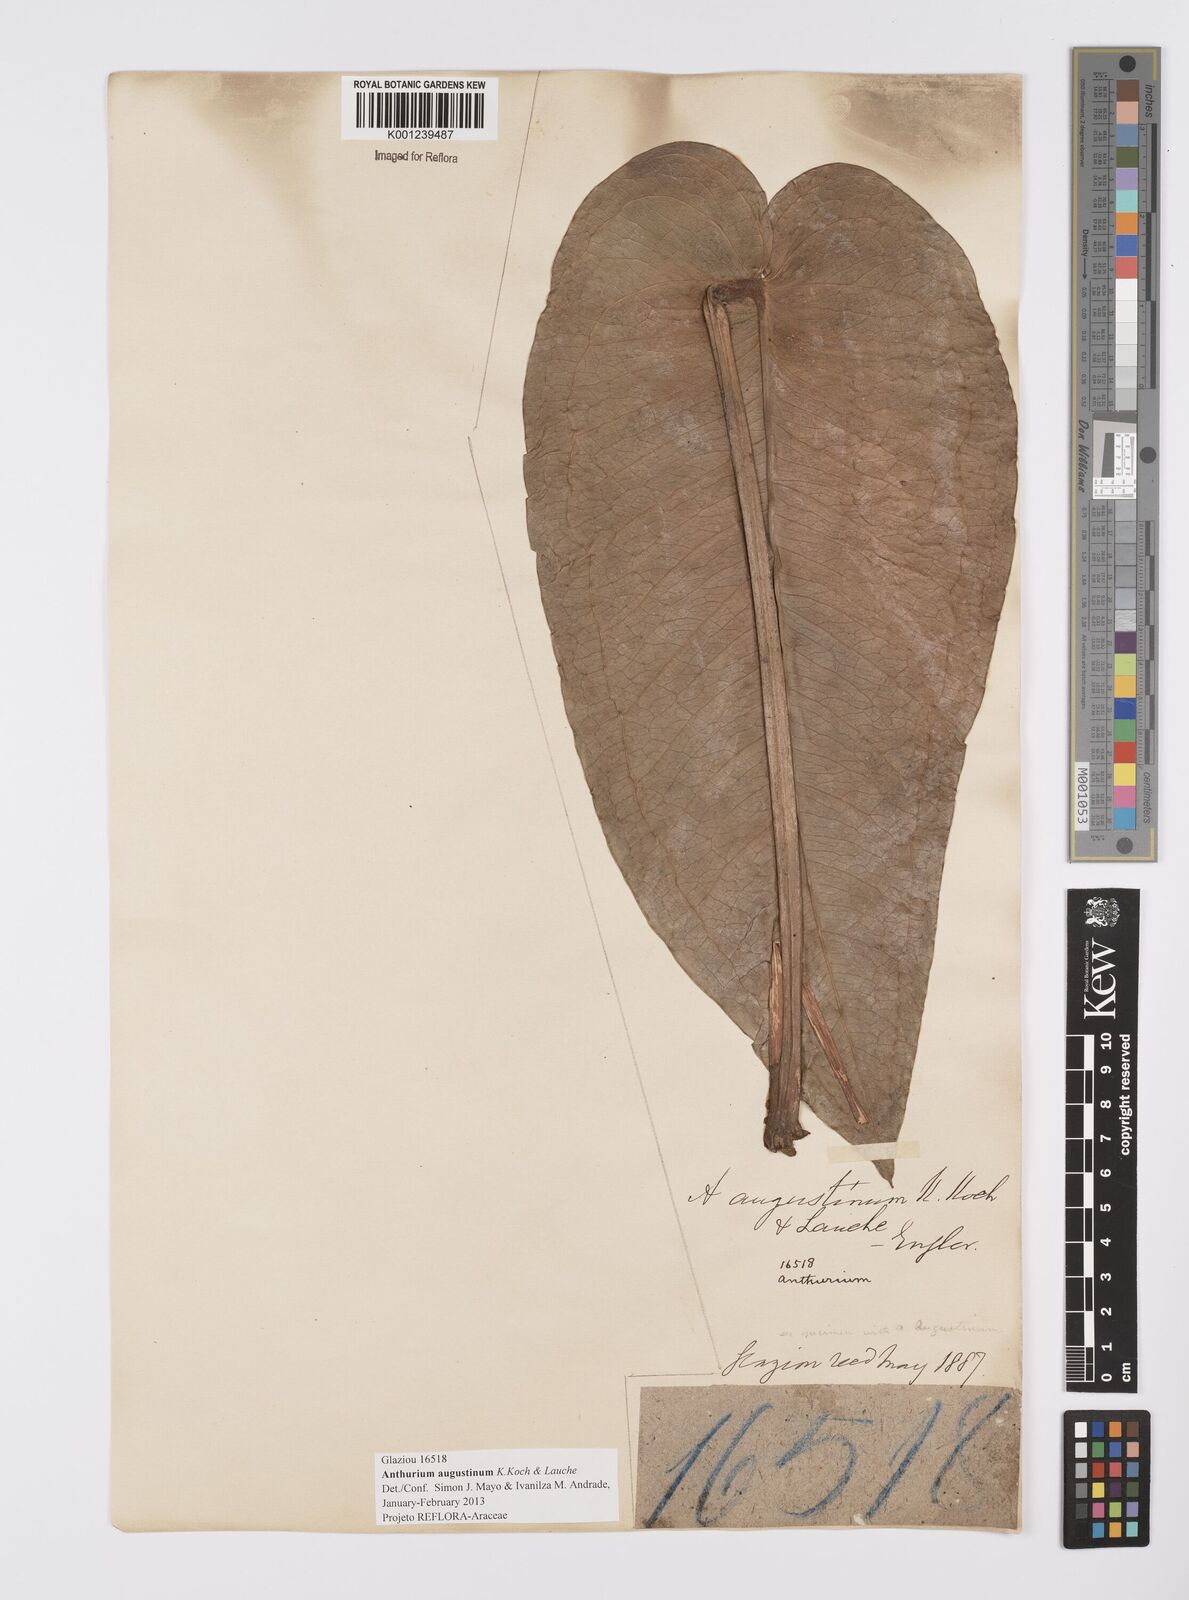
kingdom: Plantae
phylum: Tracheophyta
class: Liliopsida
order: Alismatales
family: Araceae
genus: Anthurium
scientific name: Anthurium augustinum
